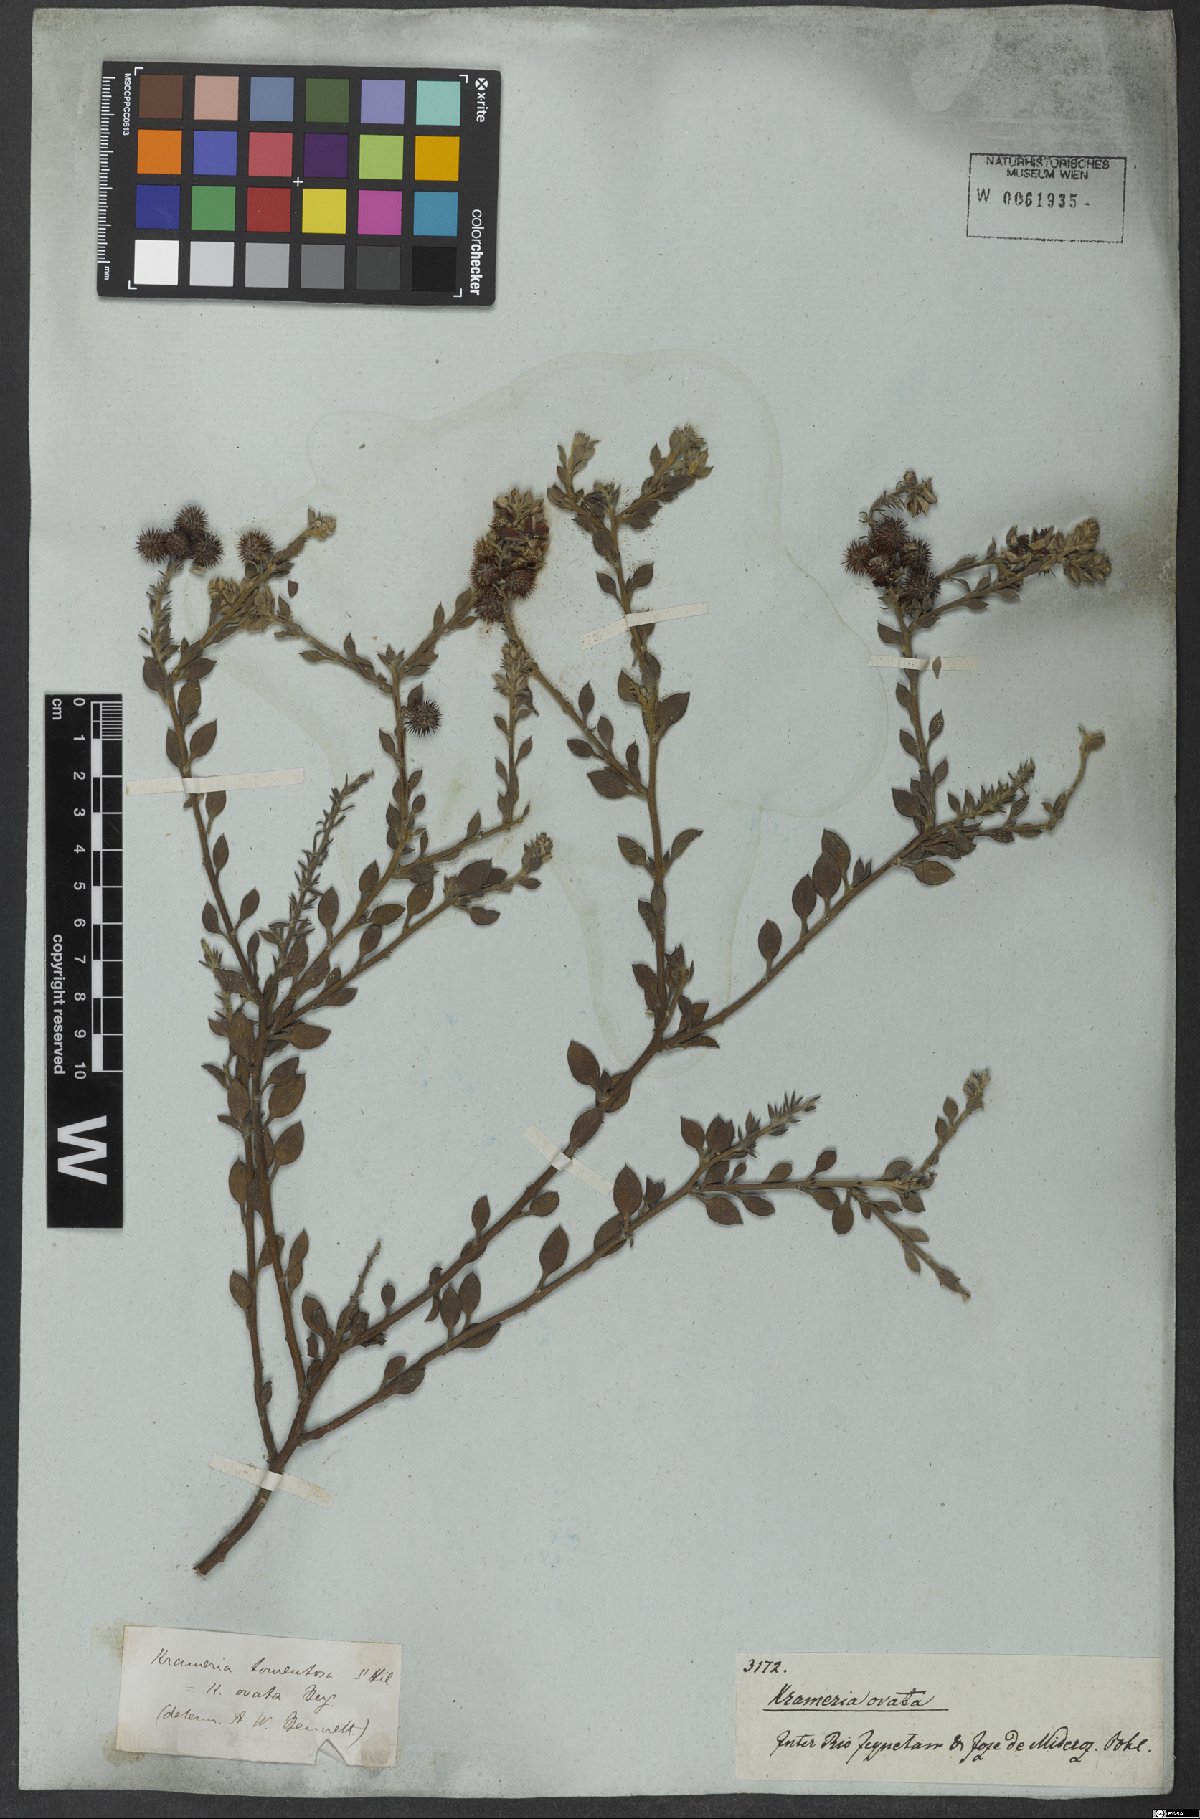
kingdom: Plantae
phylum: Tracheophyta
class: Magnoliopsida
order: Zygophyllales
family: Krameriaceae
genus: Krameria
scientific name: Krameria tomentosa
